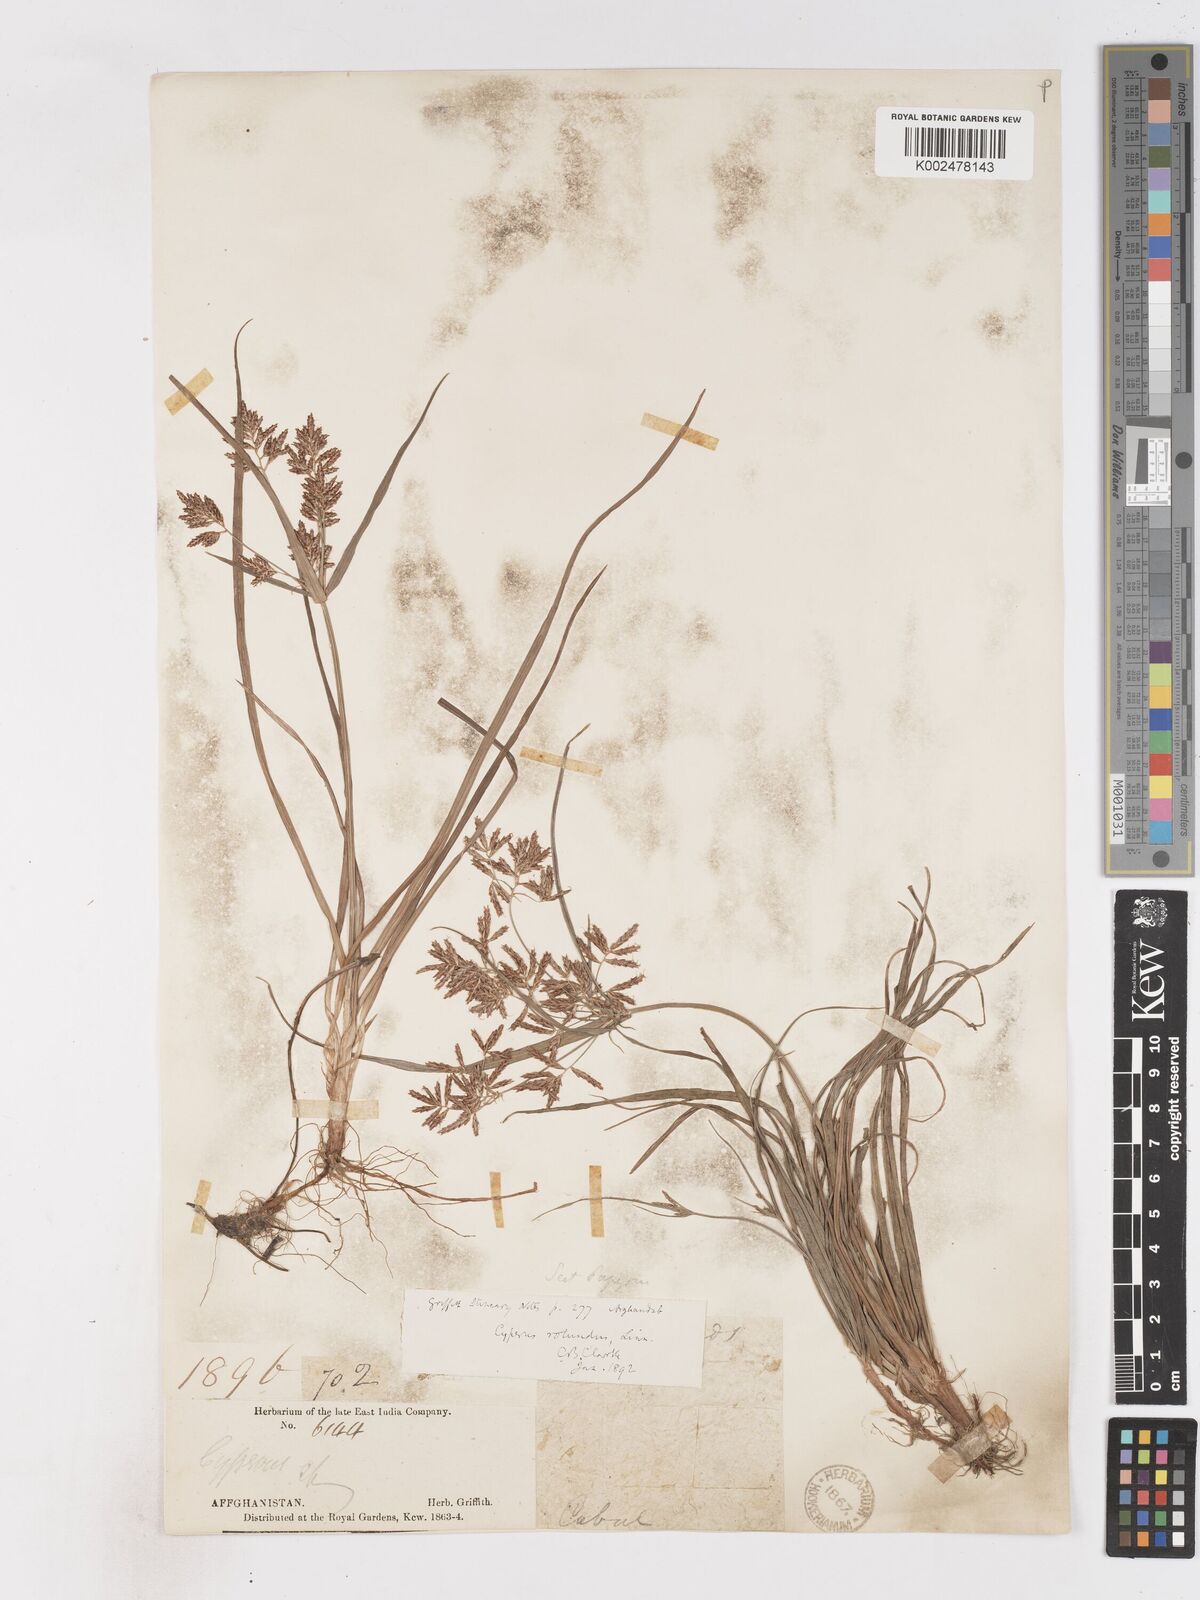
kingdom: Plantae
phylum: Tracheophyta
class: Liliopsida
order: Poales
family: Cyperaceae
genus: Cyperus
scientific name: Cyperus rotundus
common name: Nutgrass
